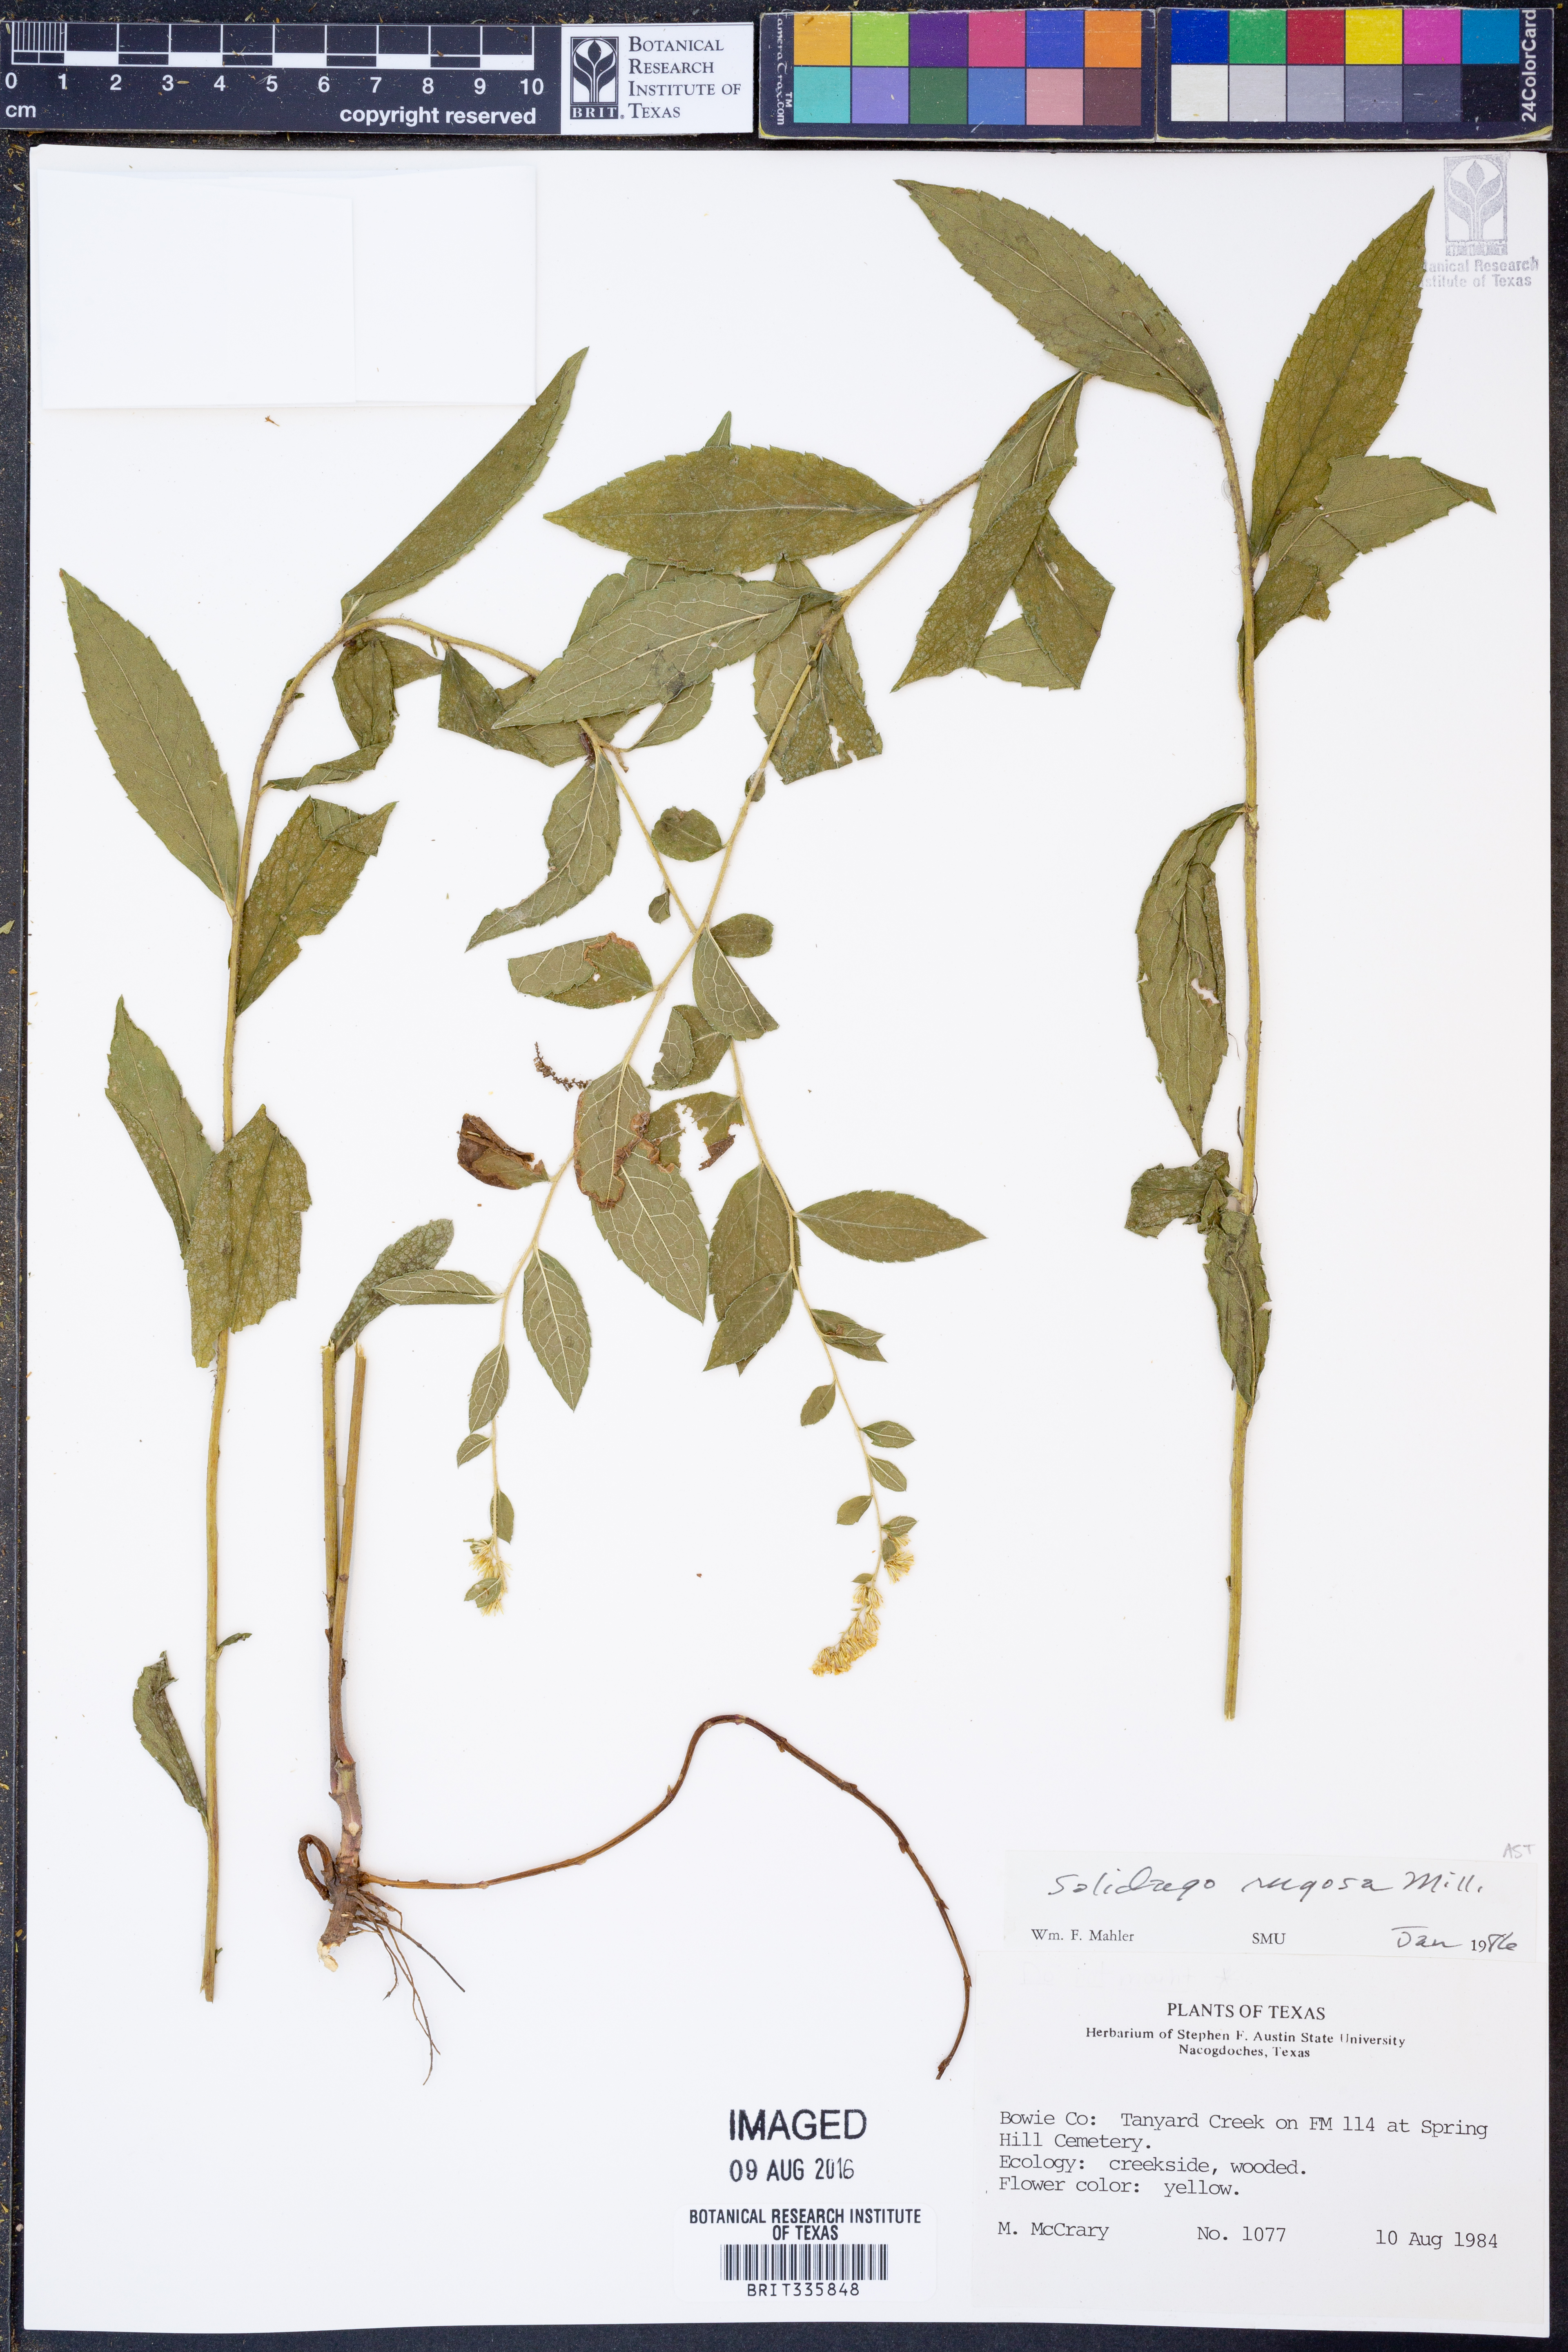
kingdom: Plantae
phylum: Tracheophyta
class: Magnoliopsida
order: Asterales
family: Asteraceae
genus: Solidago
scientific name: Solidago rugosa
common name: Rough-stemmed goldenrod
